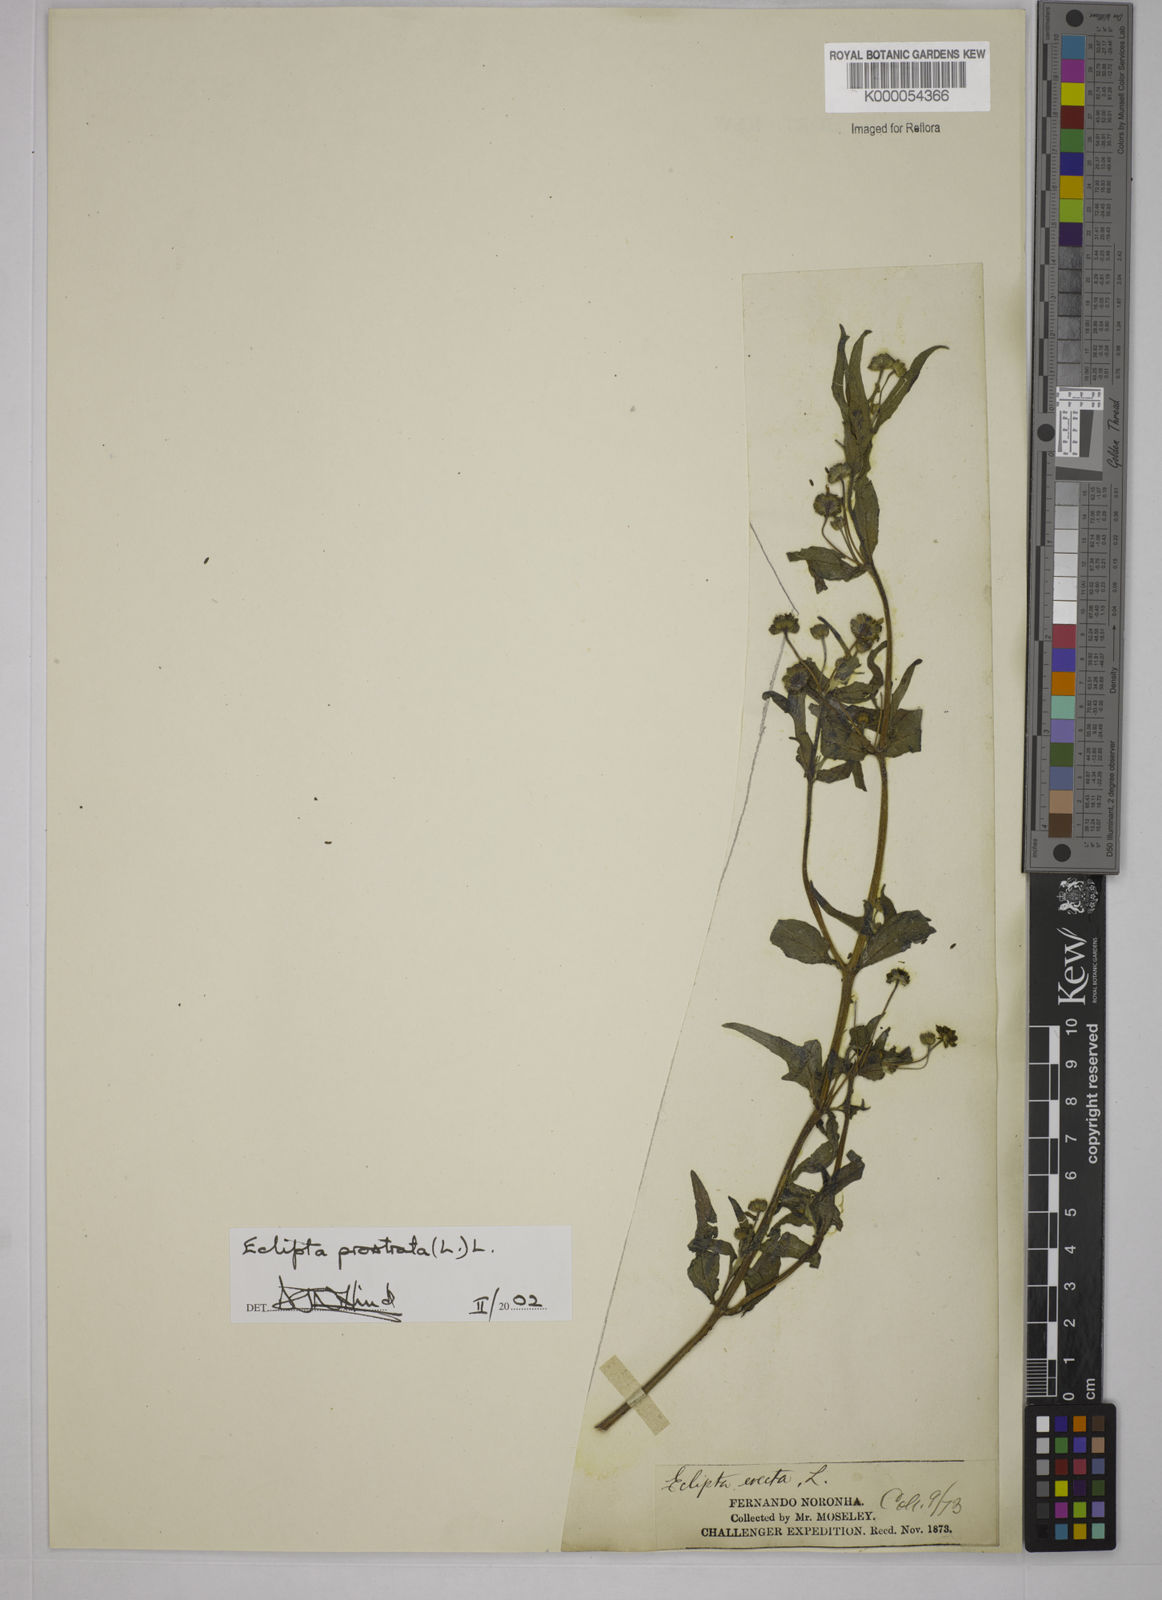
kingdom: Plantae
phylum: Tracheophyta
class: Magnoliopsida
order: Asterales
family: Asteraceae
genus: Eclipta
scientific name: Eclipta prostrata
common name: False daisy
